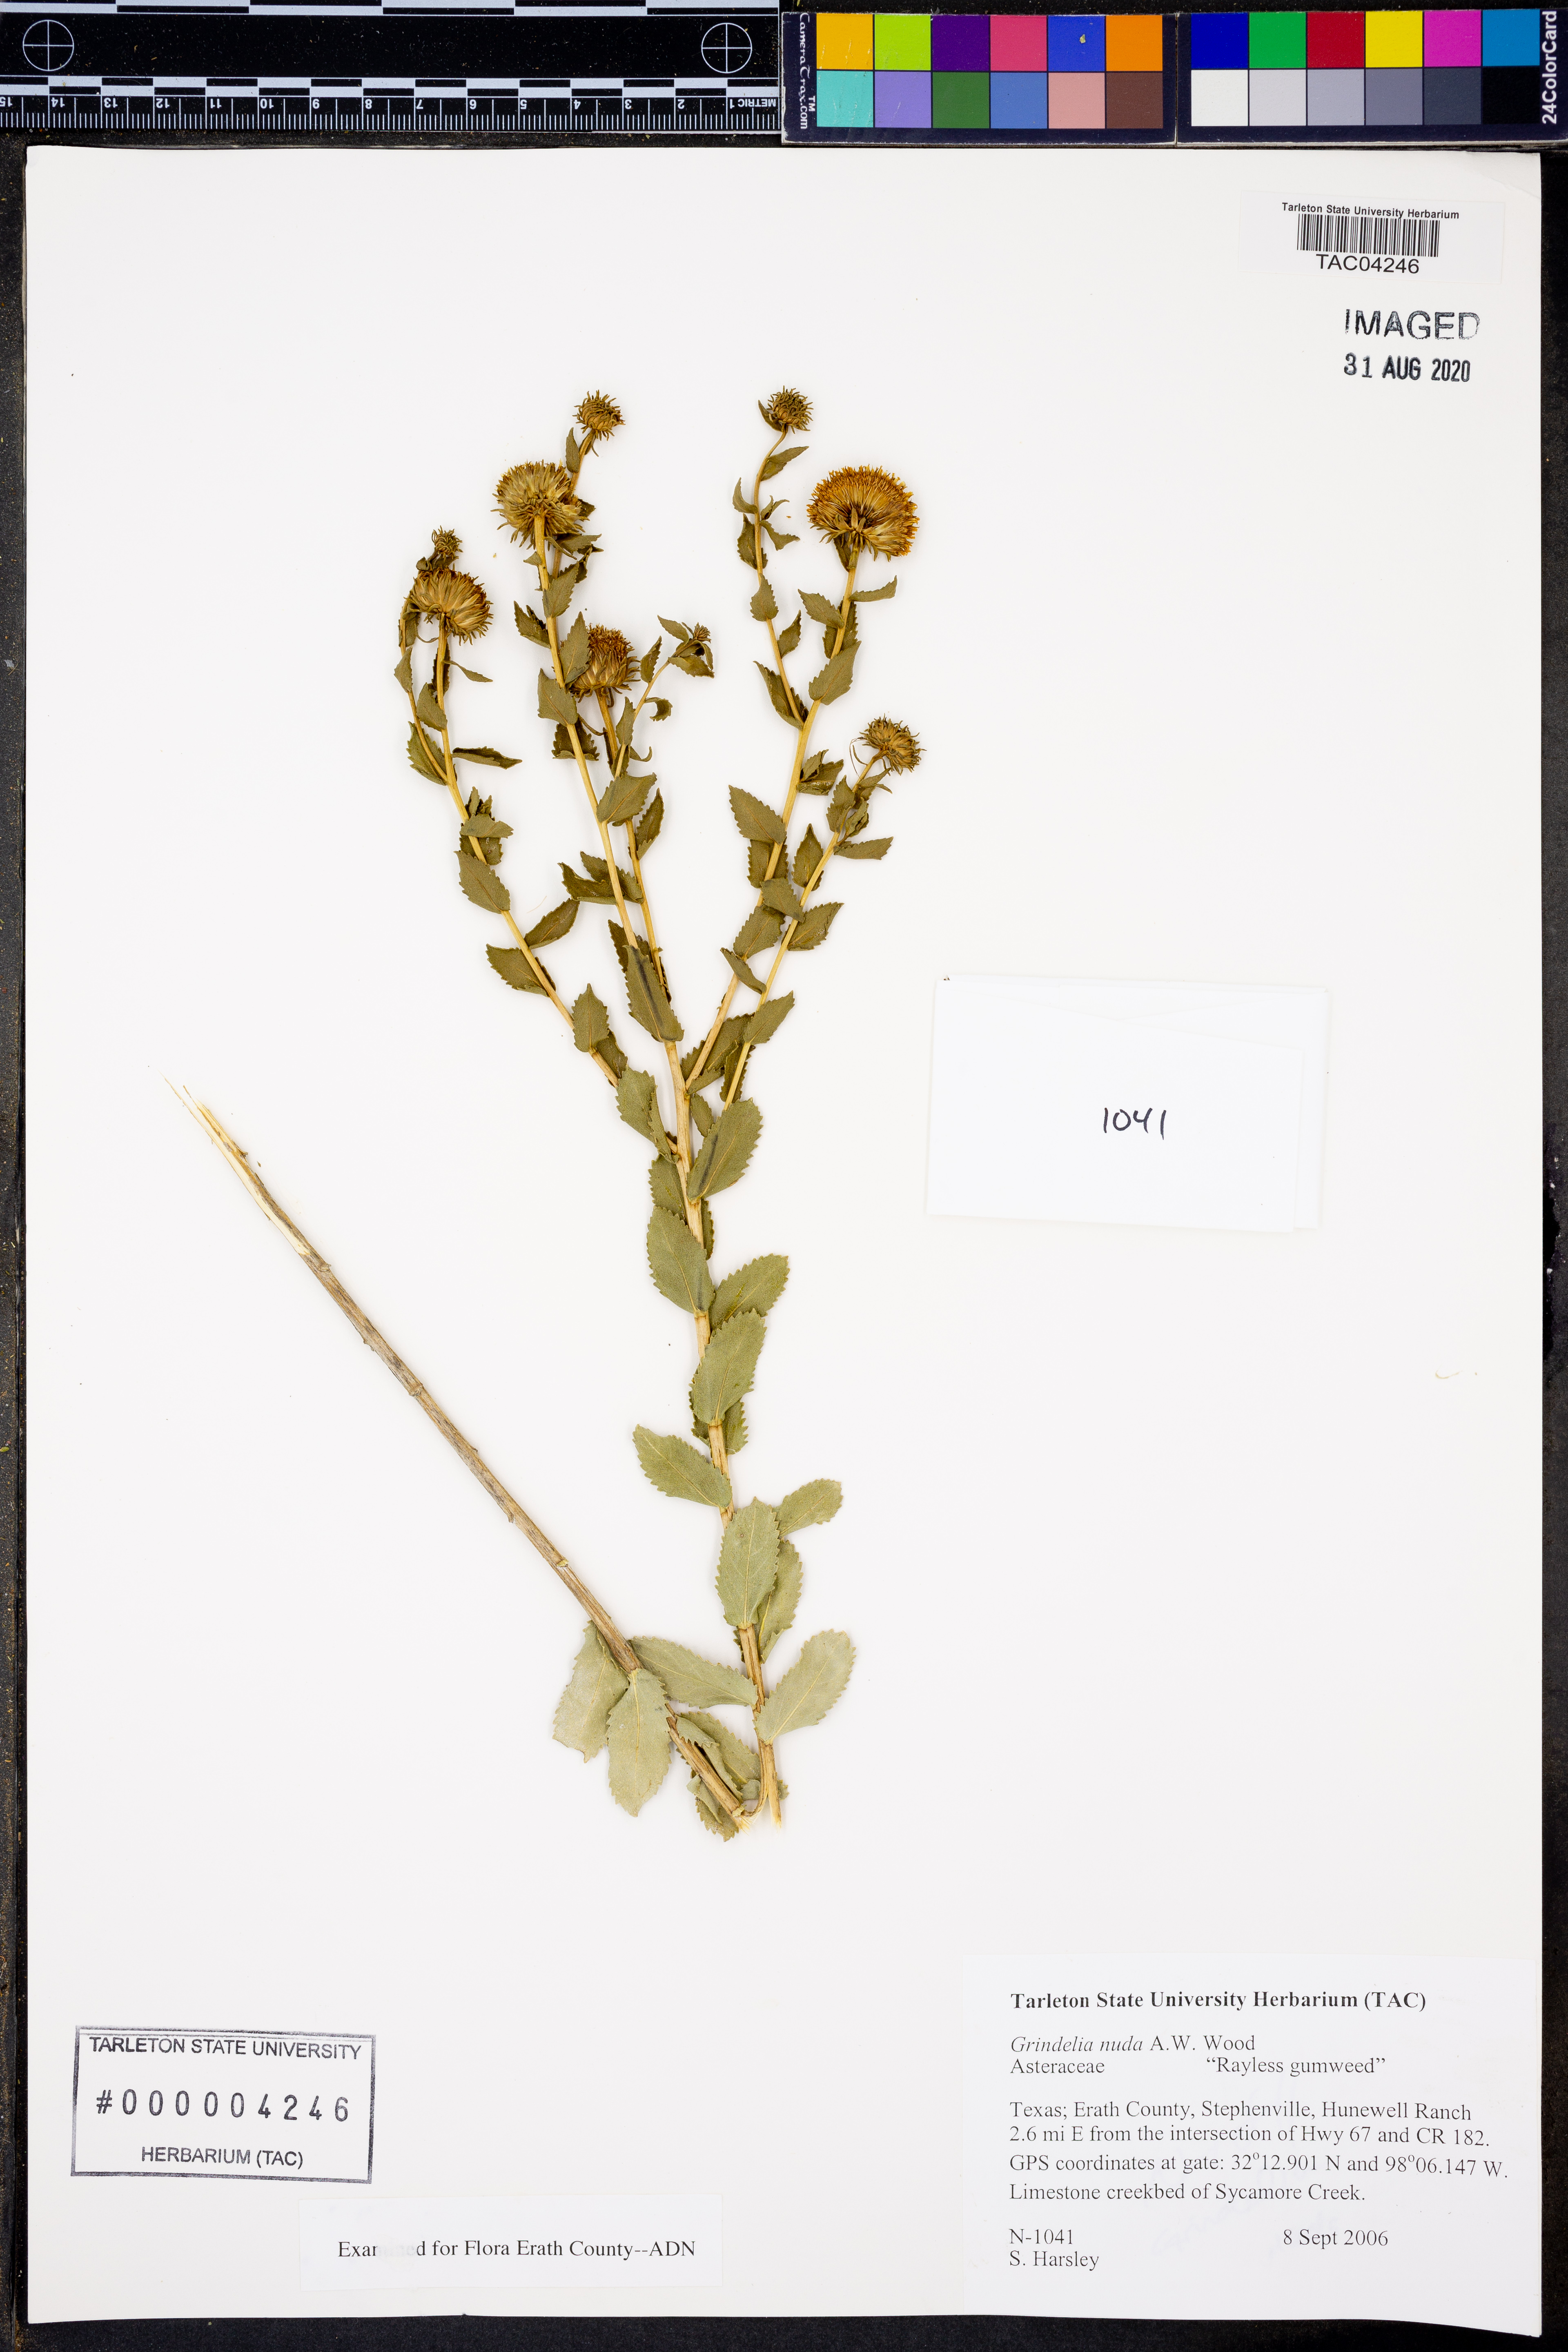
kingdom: Plantae
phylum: Tracheophyta
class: Magnoliopsida
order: Asterales
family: Asteraceae
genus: Grindelia
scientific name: Grindelia nuda
